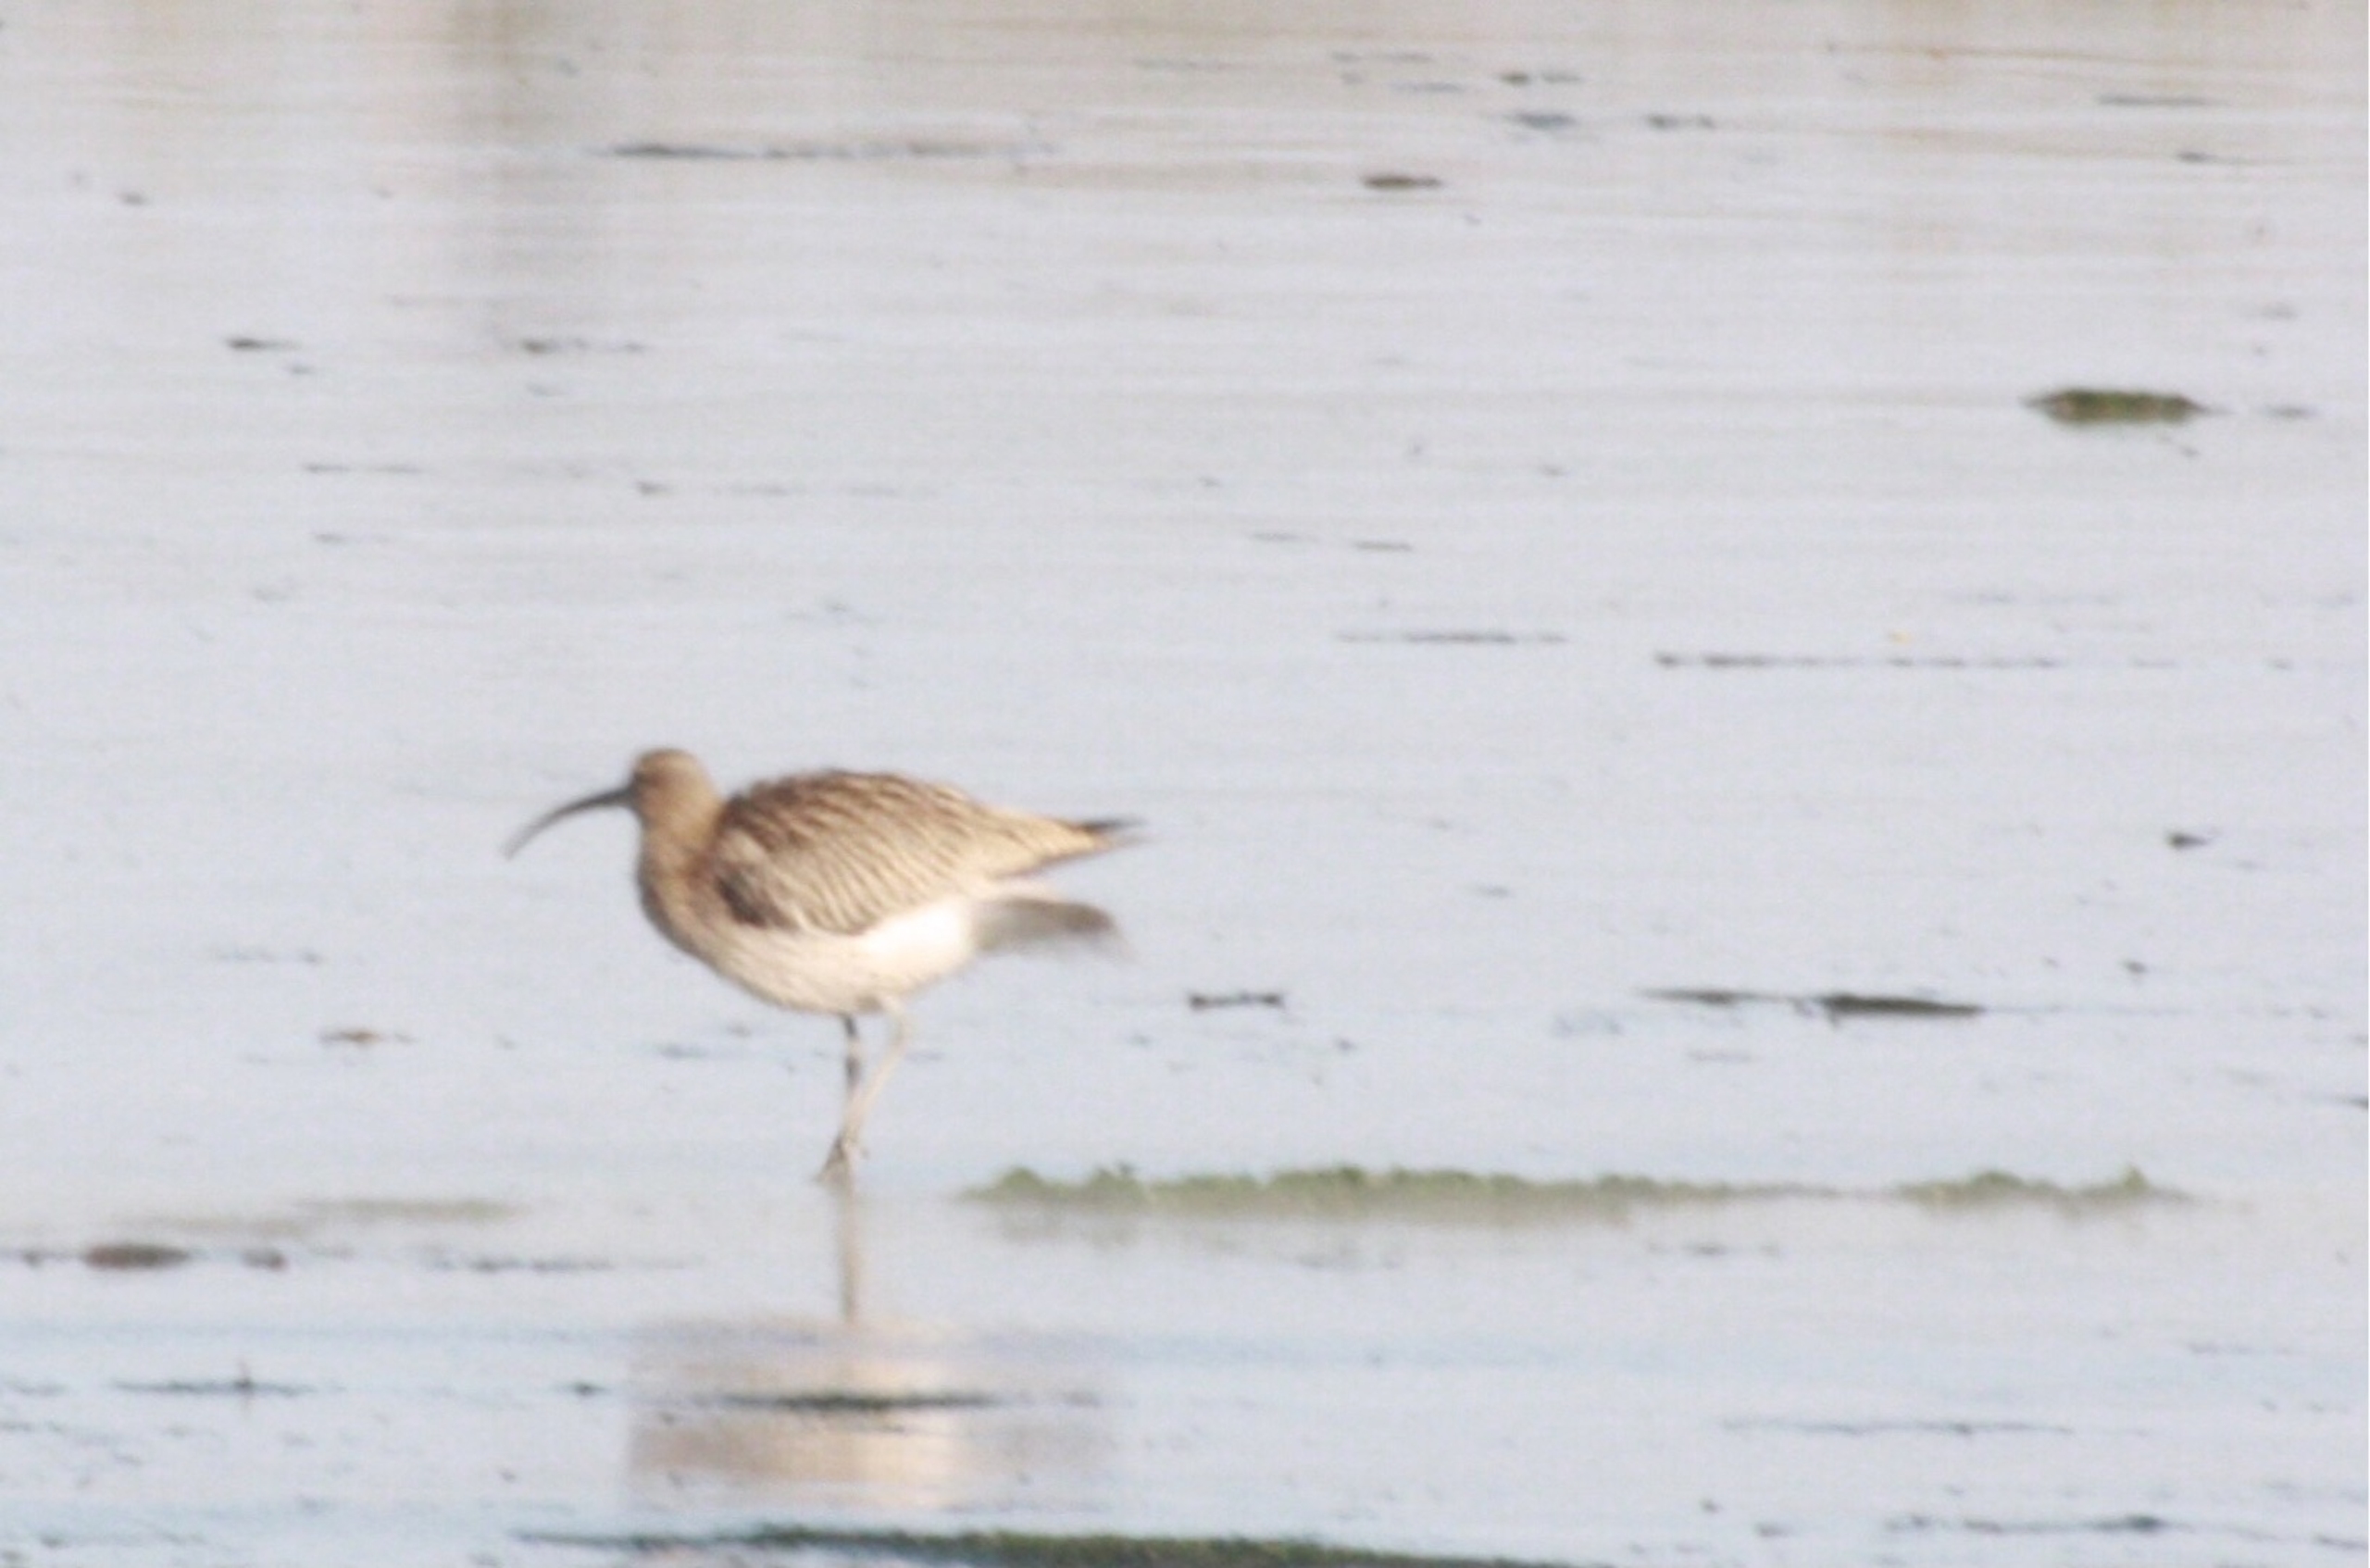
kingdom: Animalia
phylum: Chordata
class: Aves
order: Charadriiformes
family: Scolopacidae
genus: Numenius
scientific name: Numenius arquata
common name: Storspove
